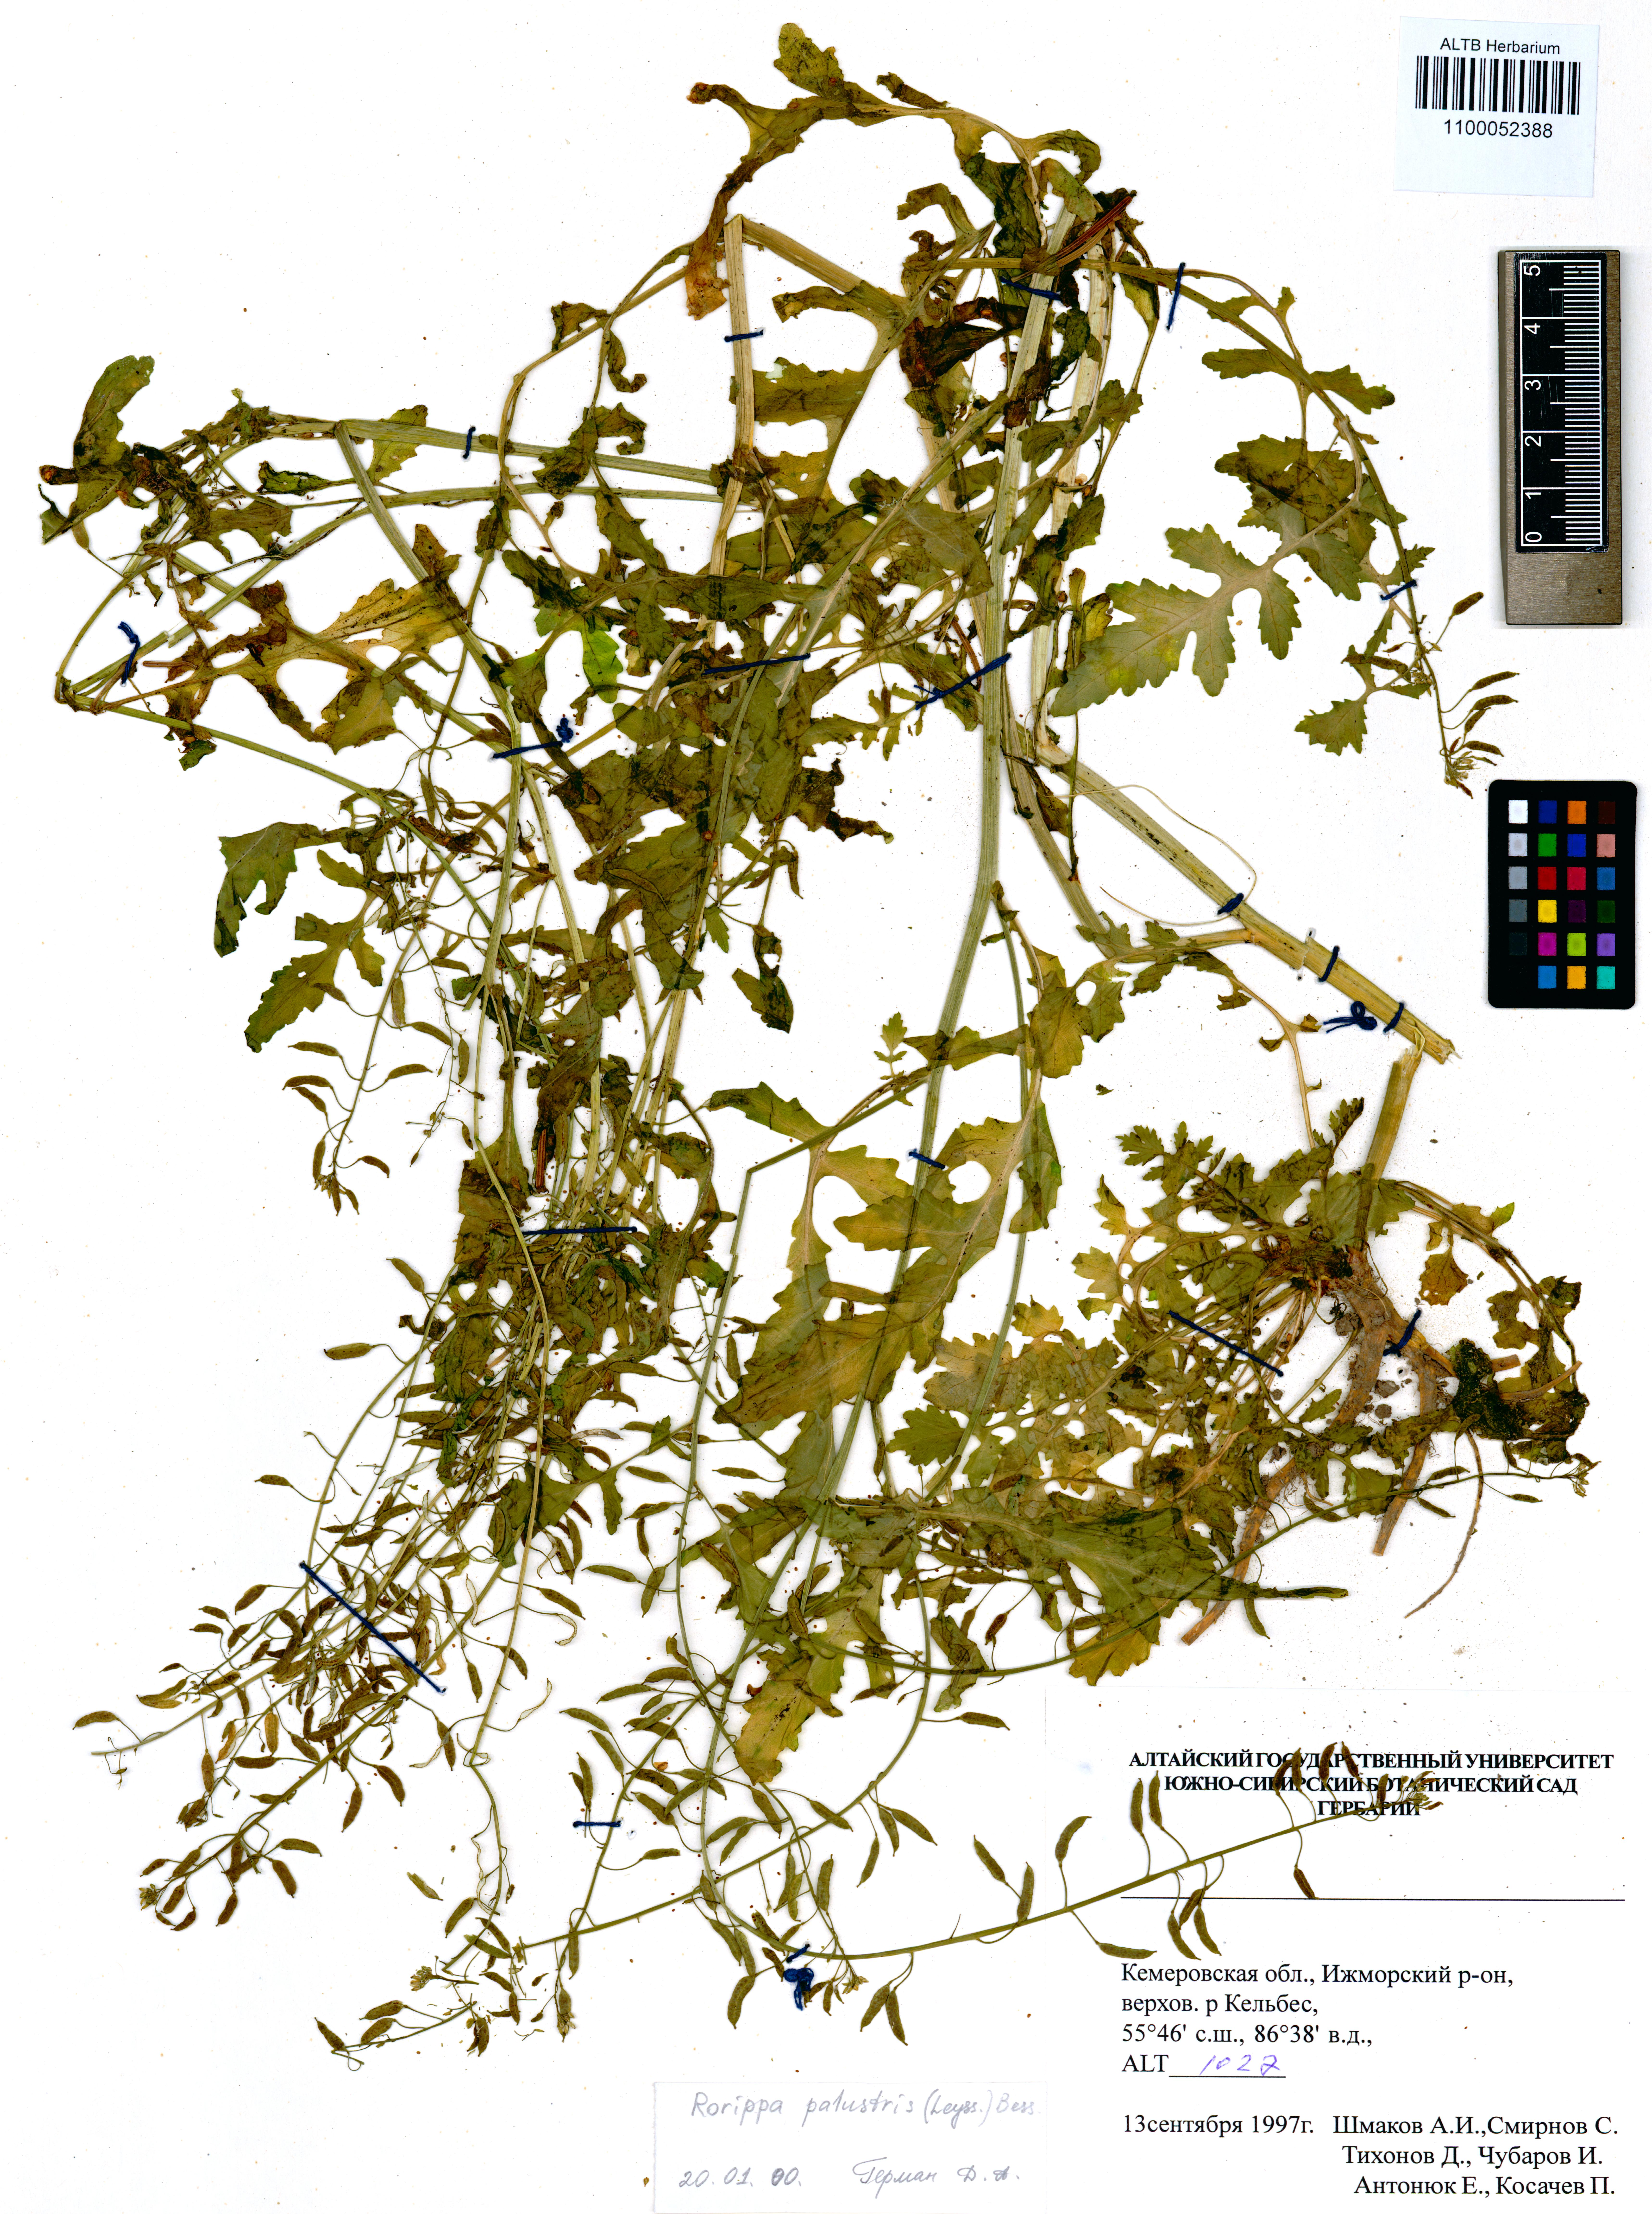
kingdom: Plantae
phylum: Tracheophyta
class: Magnoliopsida
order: Brassicales
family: Brassicaceae
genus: Rorippa
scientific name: Rorippa palustris
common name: Marsh yellow-cress
